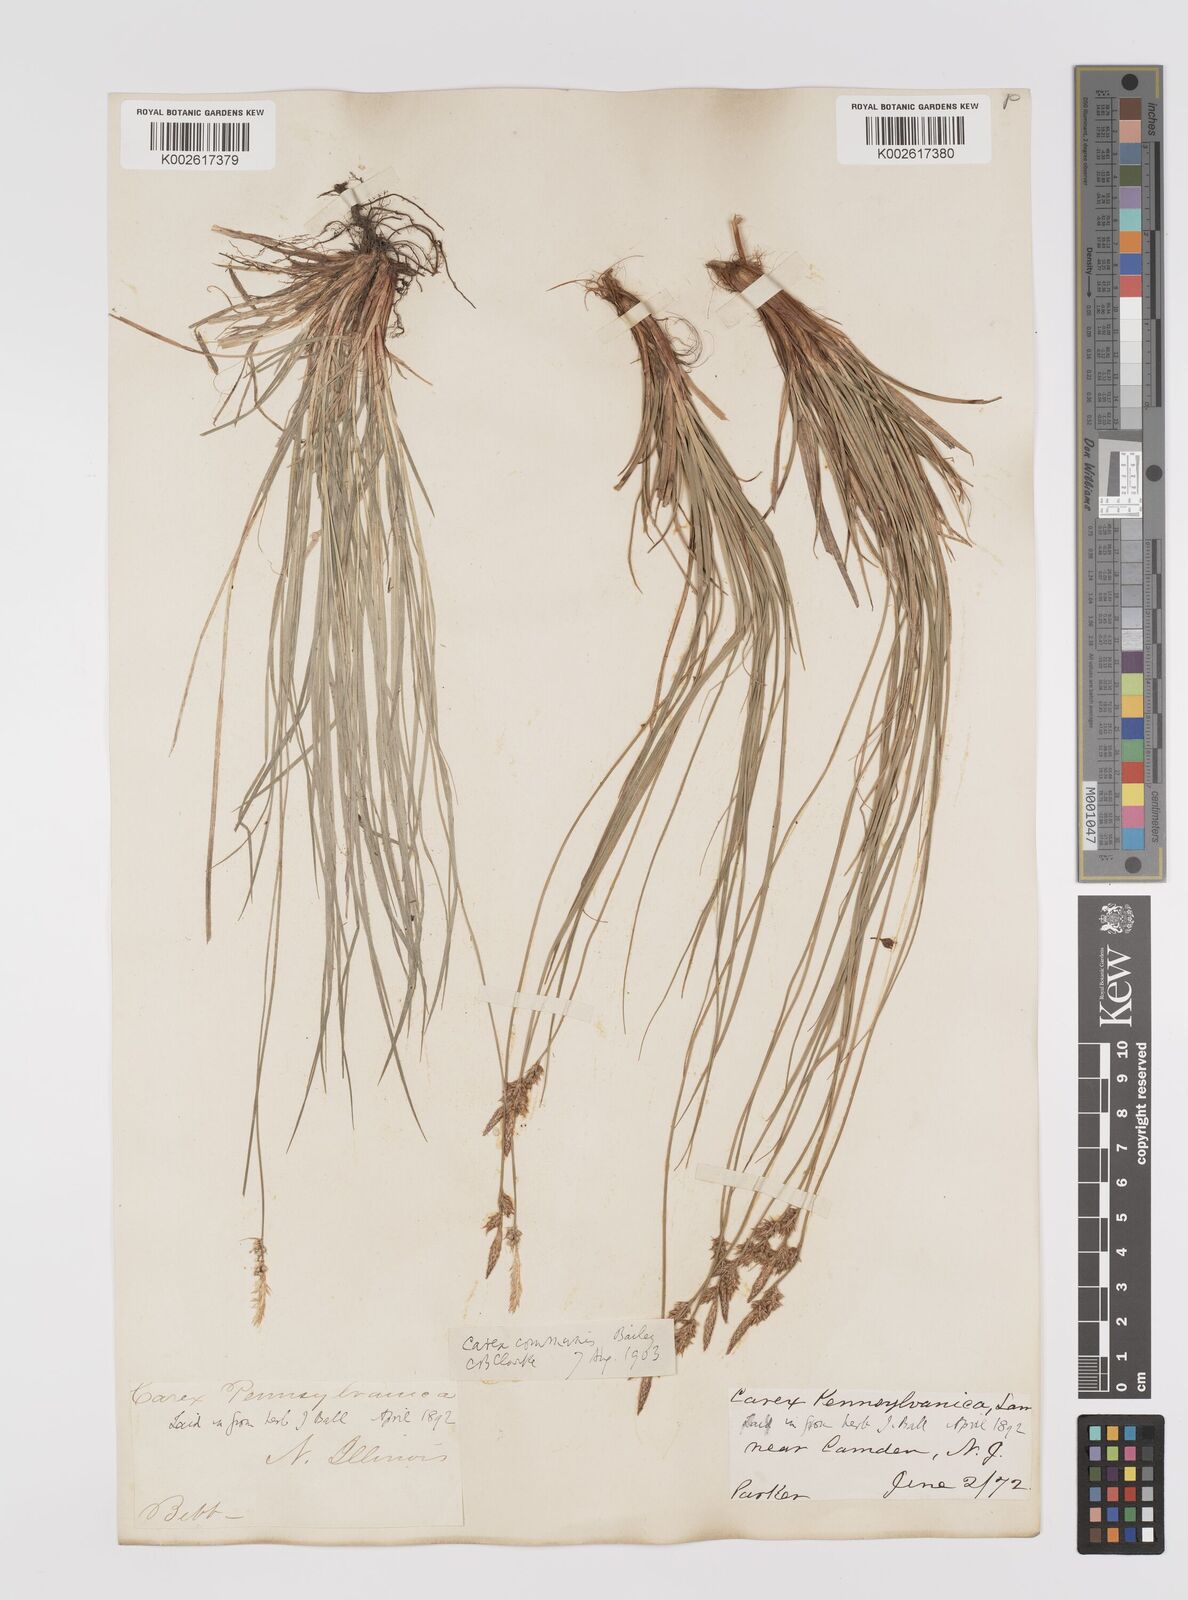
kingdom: Plantae
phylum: Tracheophyta
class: Liliopsida
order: Poales
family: Cyperaceae
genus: Carex
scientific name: Carex communis
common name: Colonial oak sedge
